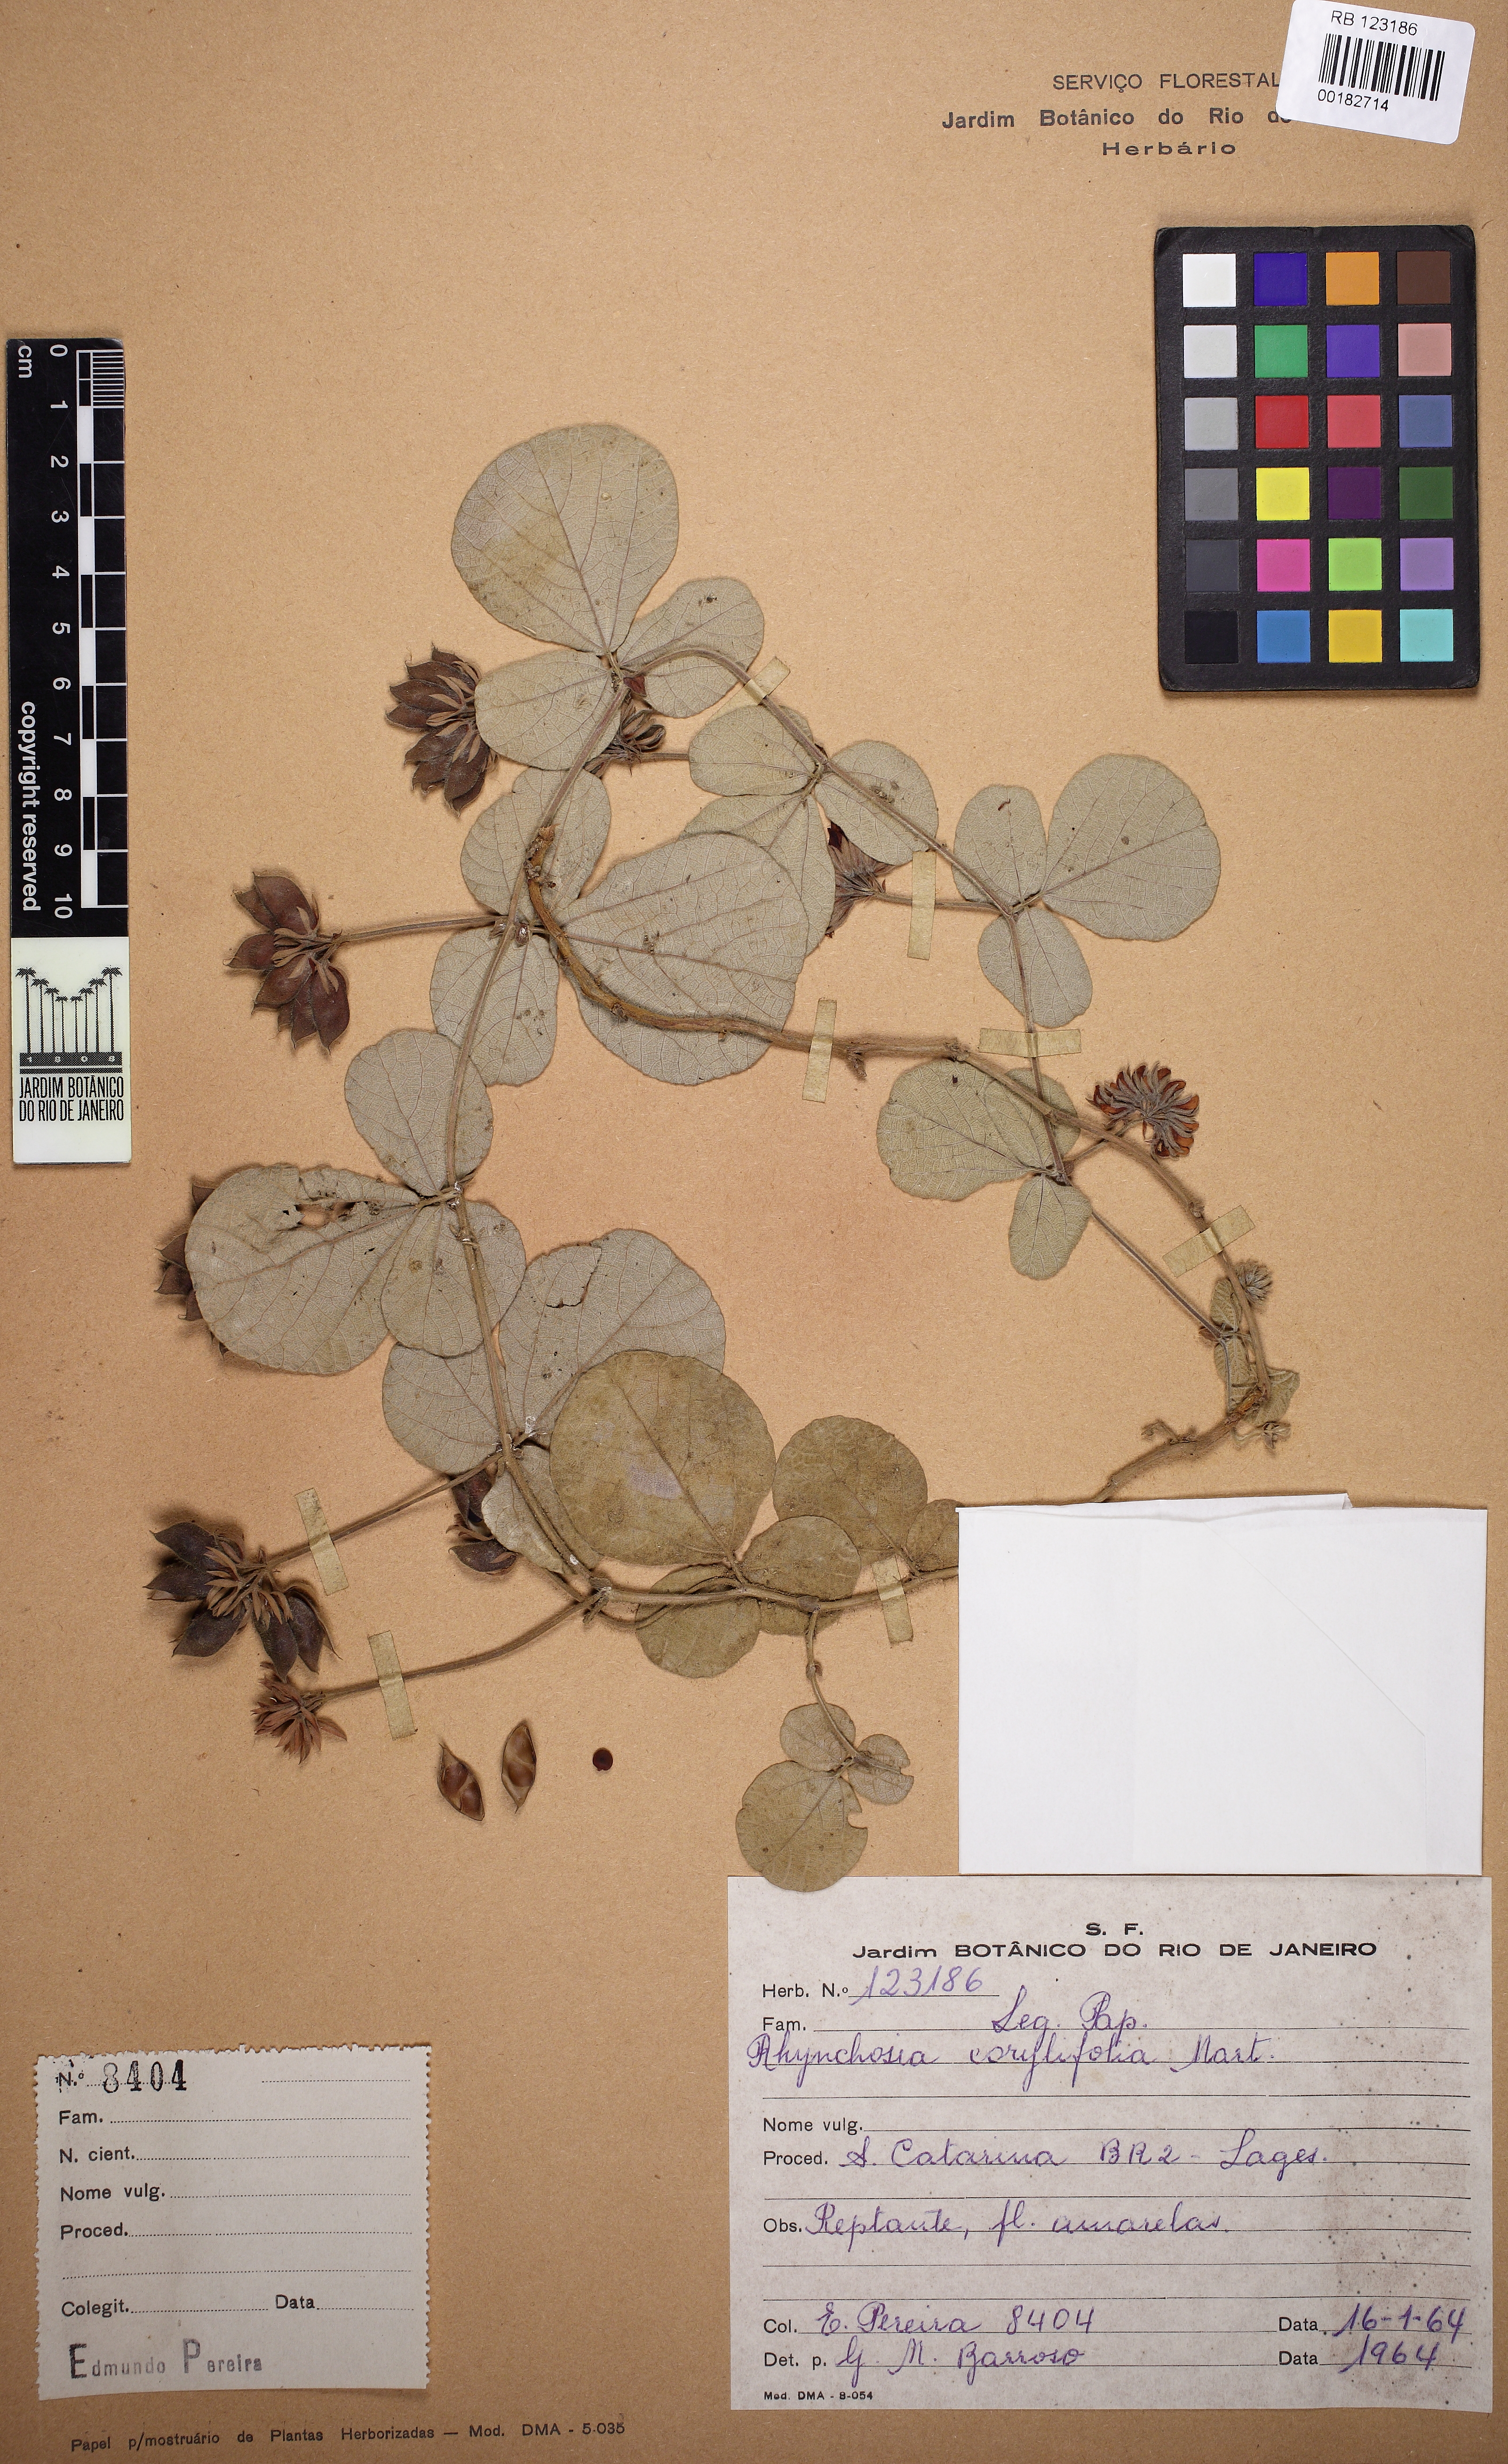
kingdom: Plantae
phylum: Tracheophyta
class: Magnoliopsida
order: Fabales
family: Fabaceae
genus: Rhynchosia
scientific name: Rhynchosia corylifolia
